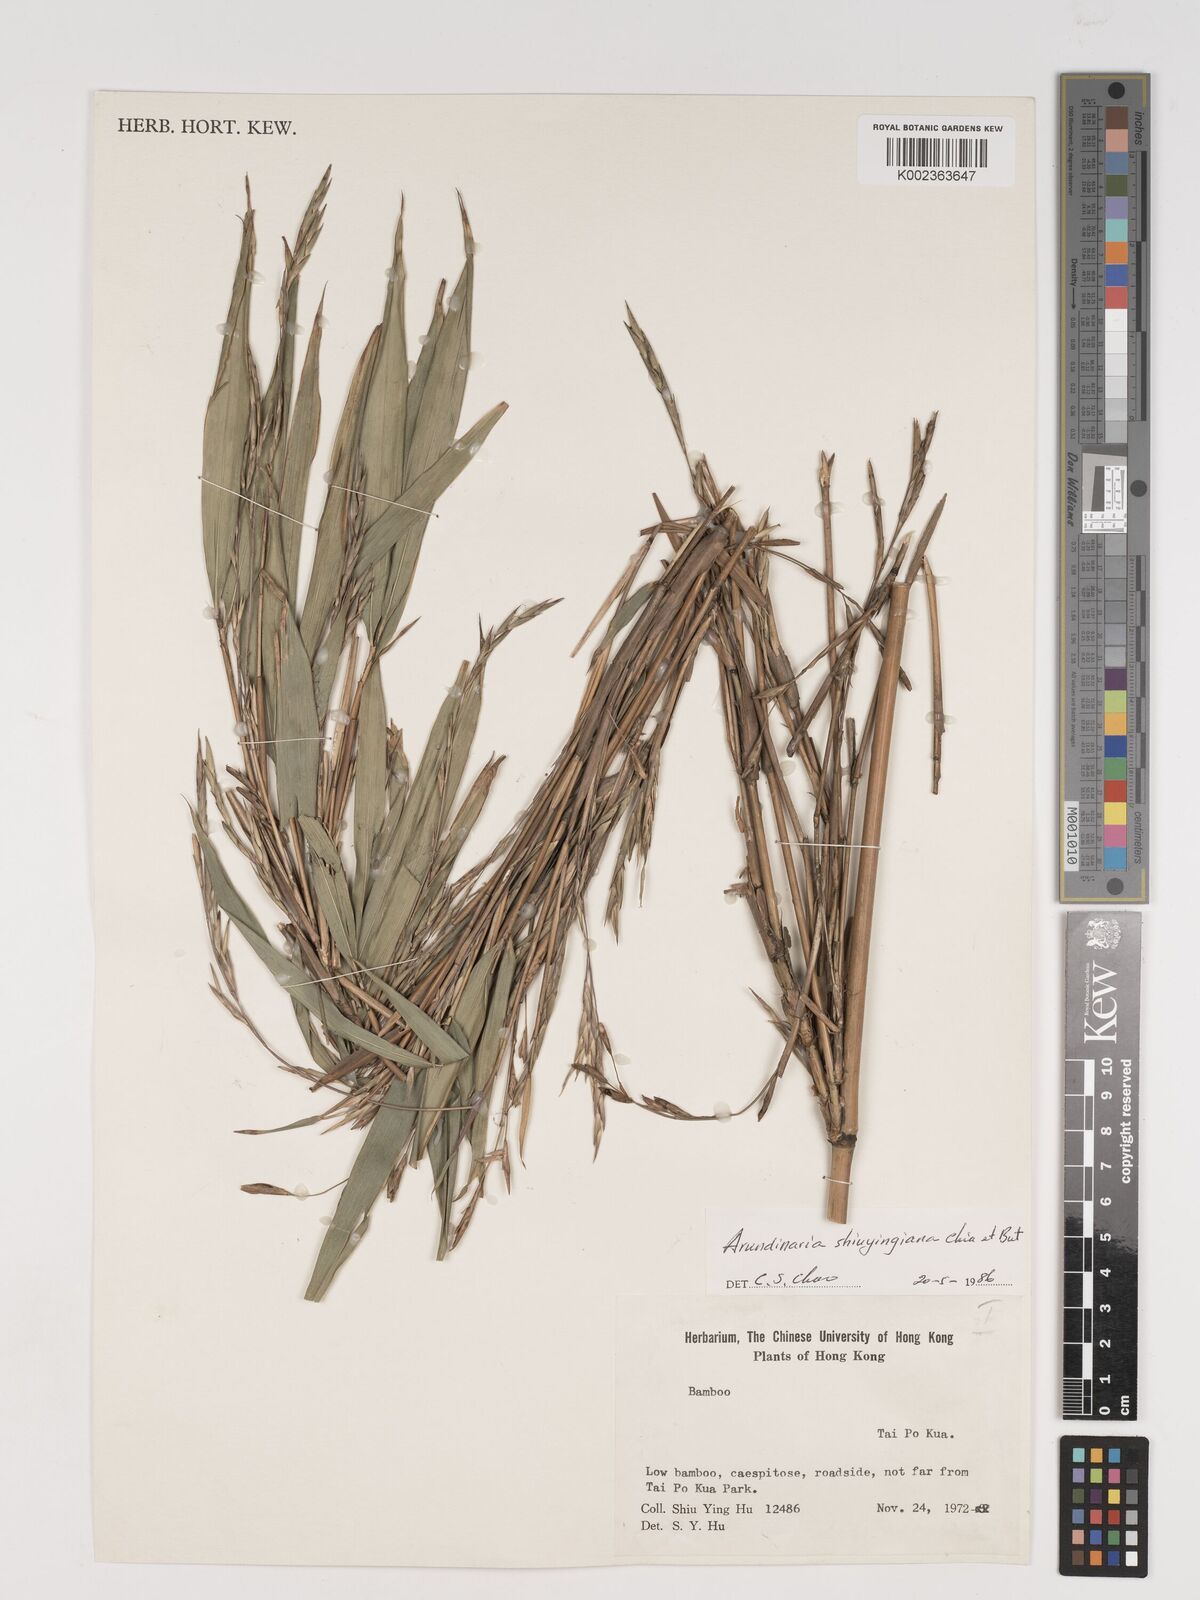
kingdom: Plantae
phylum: Tracheophyta
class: Liliopsida
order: Poales
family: Poaceae
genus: Oligostachyum
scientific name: Oligostachyum shiuyingianum
